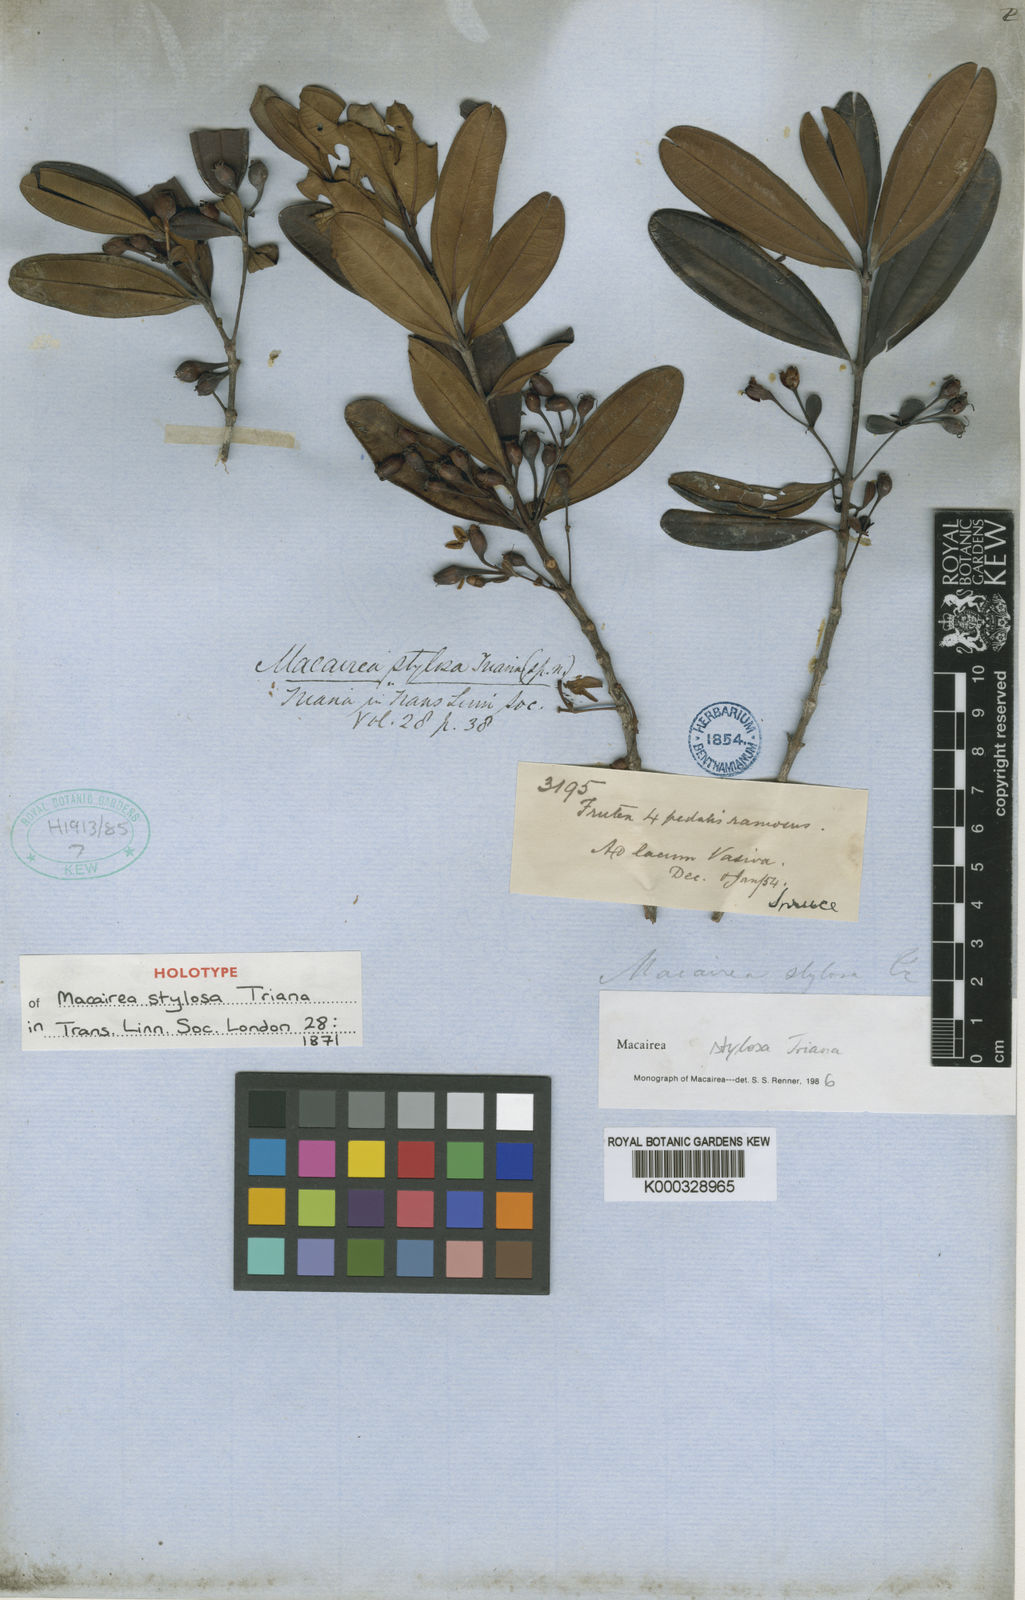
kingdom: Plantae
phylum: Tracheophyta
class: Magnoliopsida
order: Myrtales
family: Melastomataceae
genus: Macairea
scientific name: Macairea stylosa
